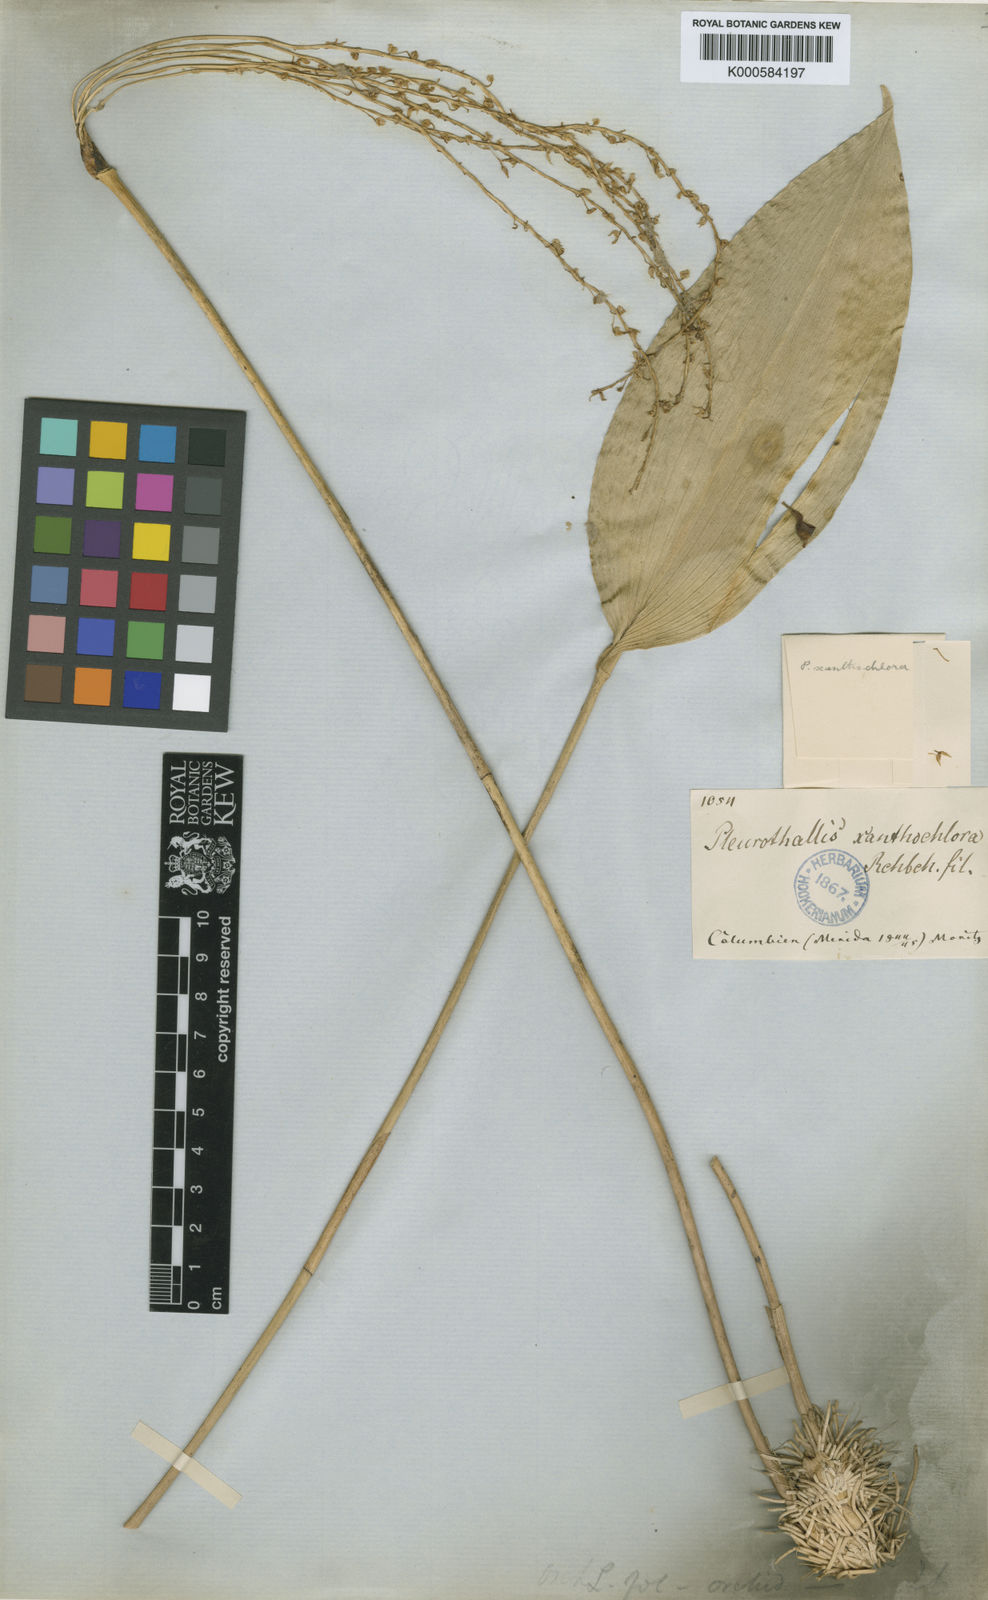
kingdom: Plantae
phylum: Tracheophyta
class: Liliopsida
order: Asparagales
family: Orchidaceae
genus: Pleurothallis
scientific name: Pleurothallis xanthochlora
